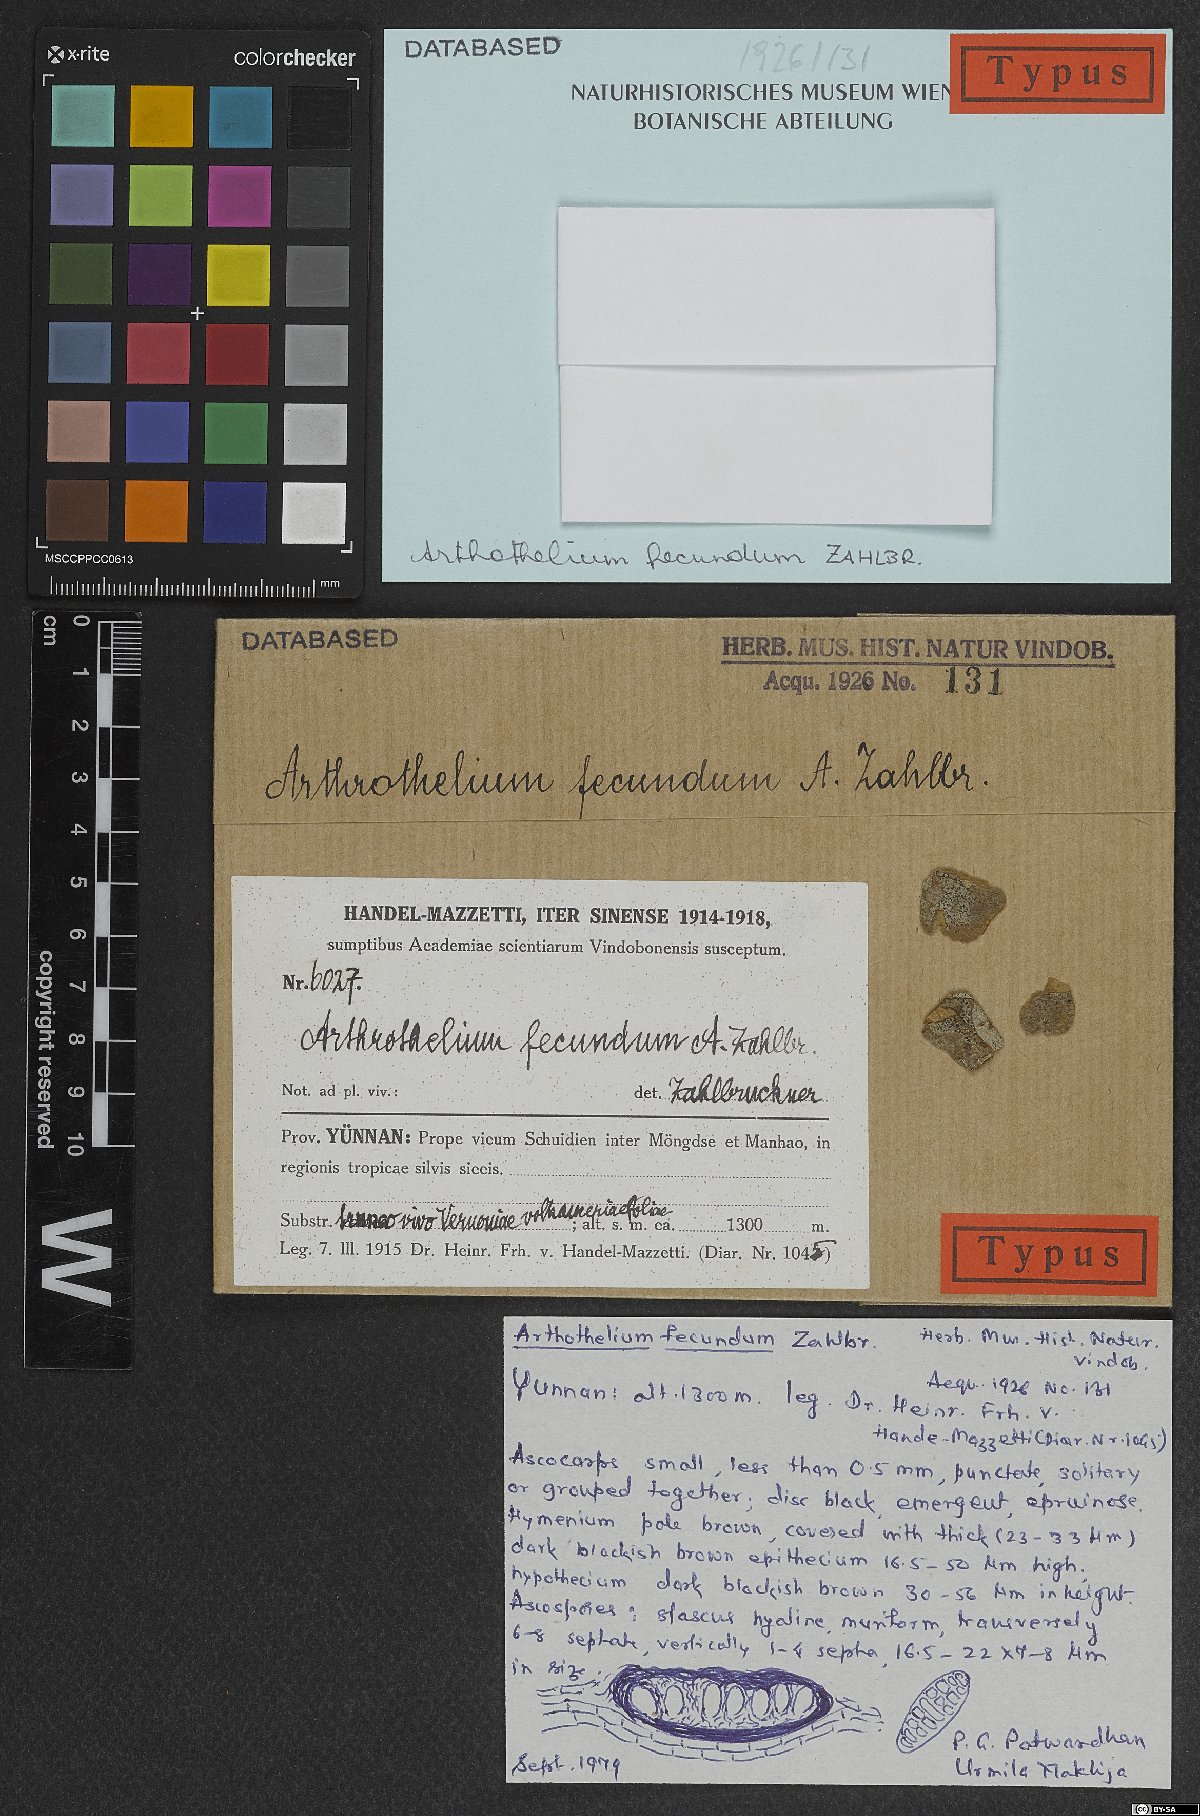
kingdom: Fungi
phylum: Ascomycota
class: Arthoniomycetes
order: Arthoniales
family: Arthoniaceae
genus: Arthothelium
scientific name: Arthothelium
